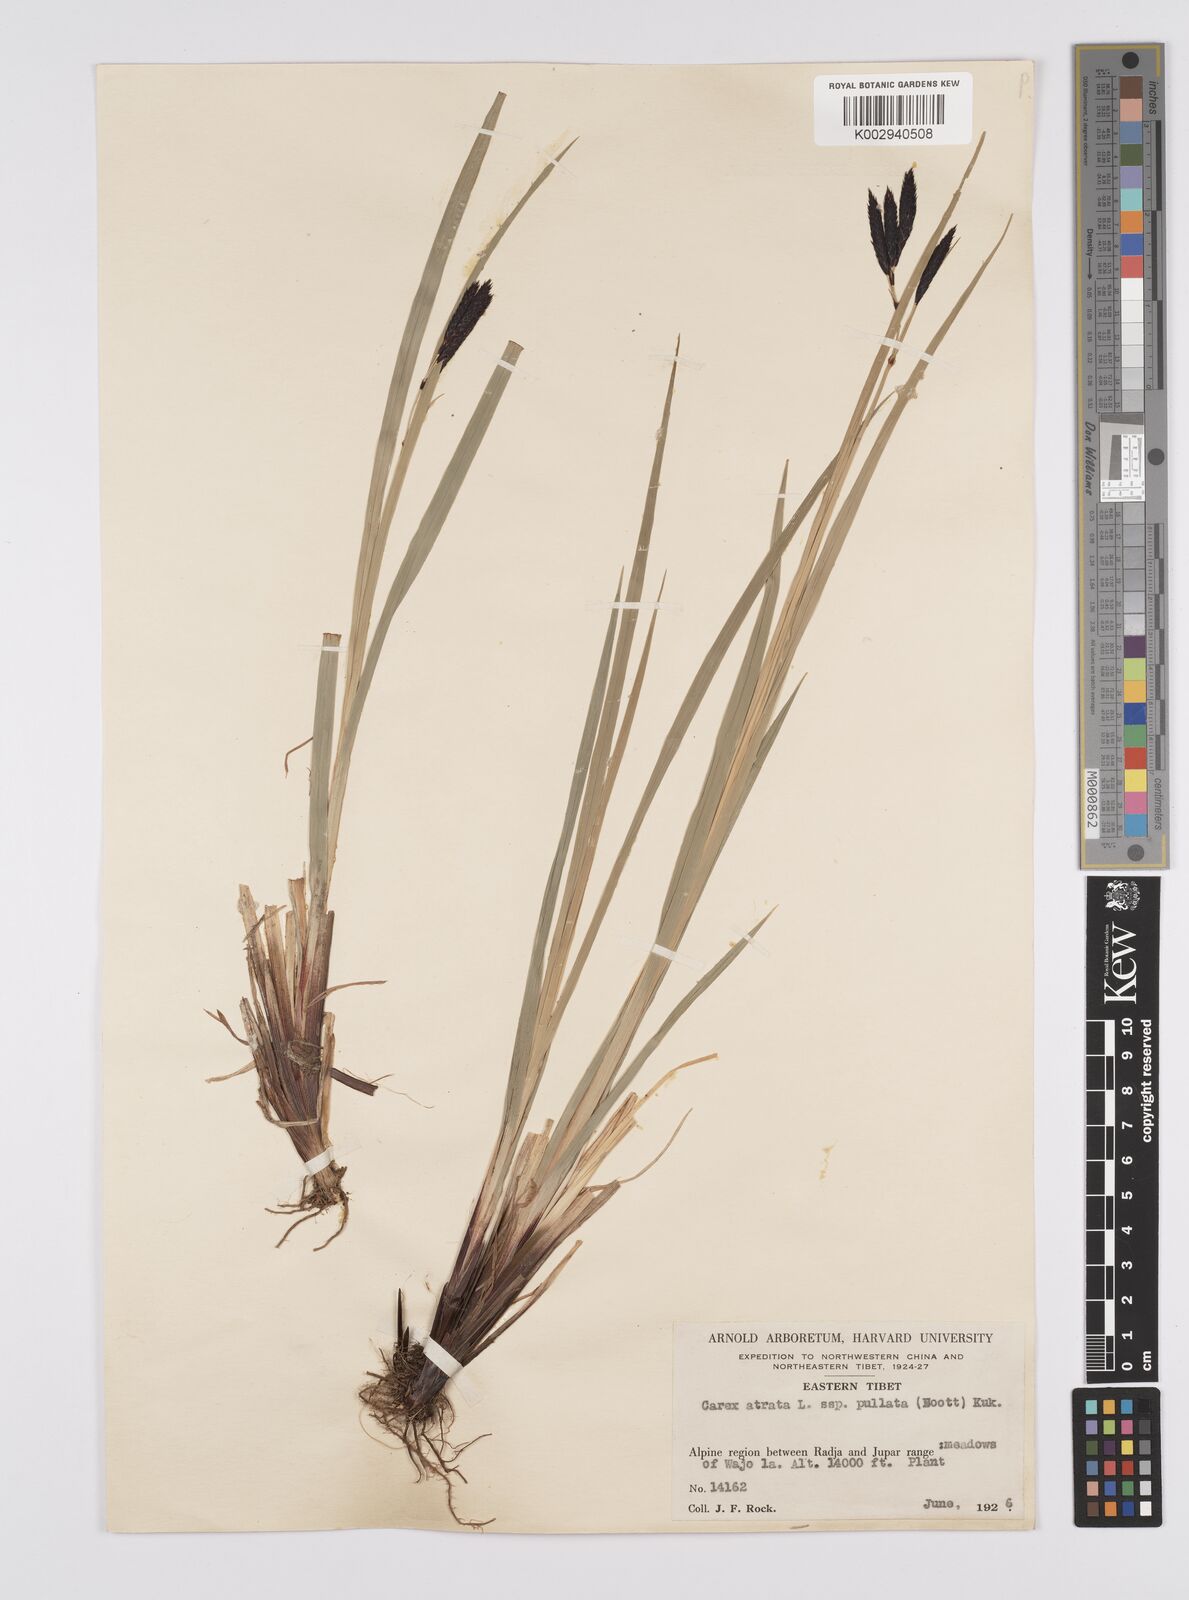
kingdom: Plantae
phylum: Tracheophyta
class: Liliopsida
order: Poales
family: Cyperaceae
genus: Carex
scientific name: Carex atrata
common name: Black alpine sedge
